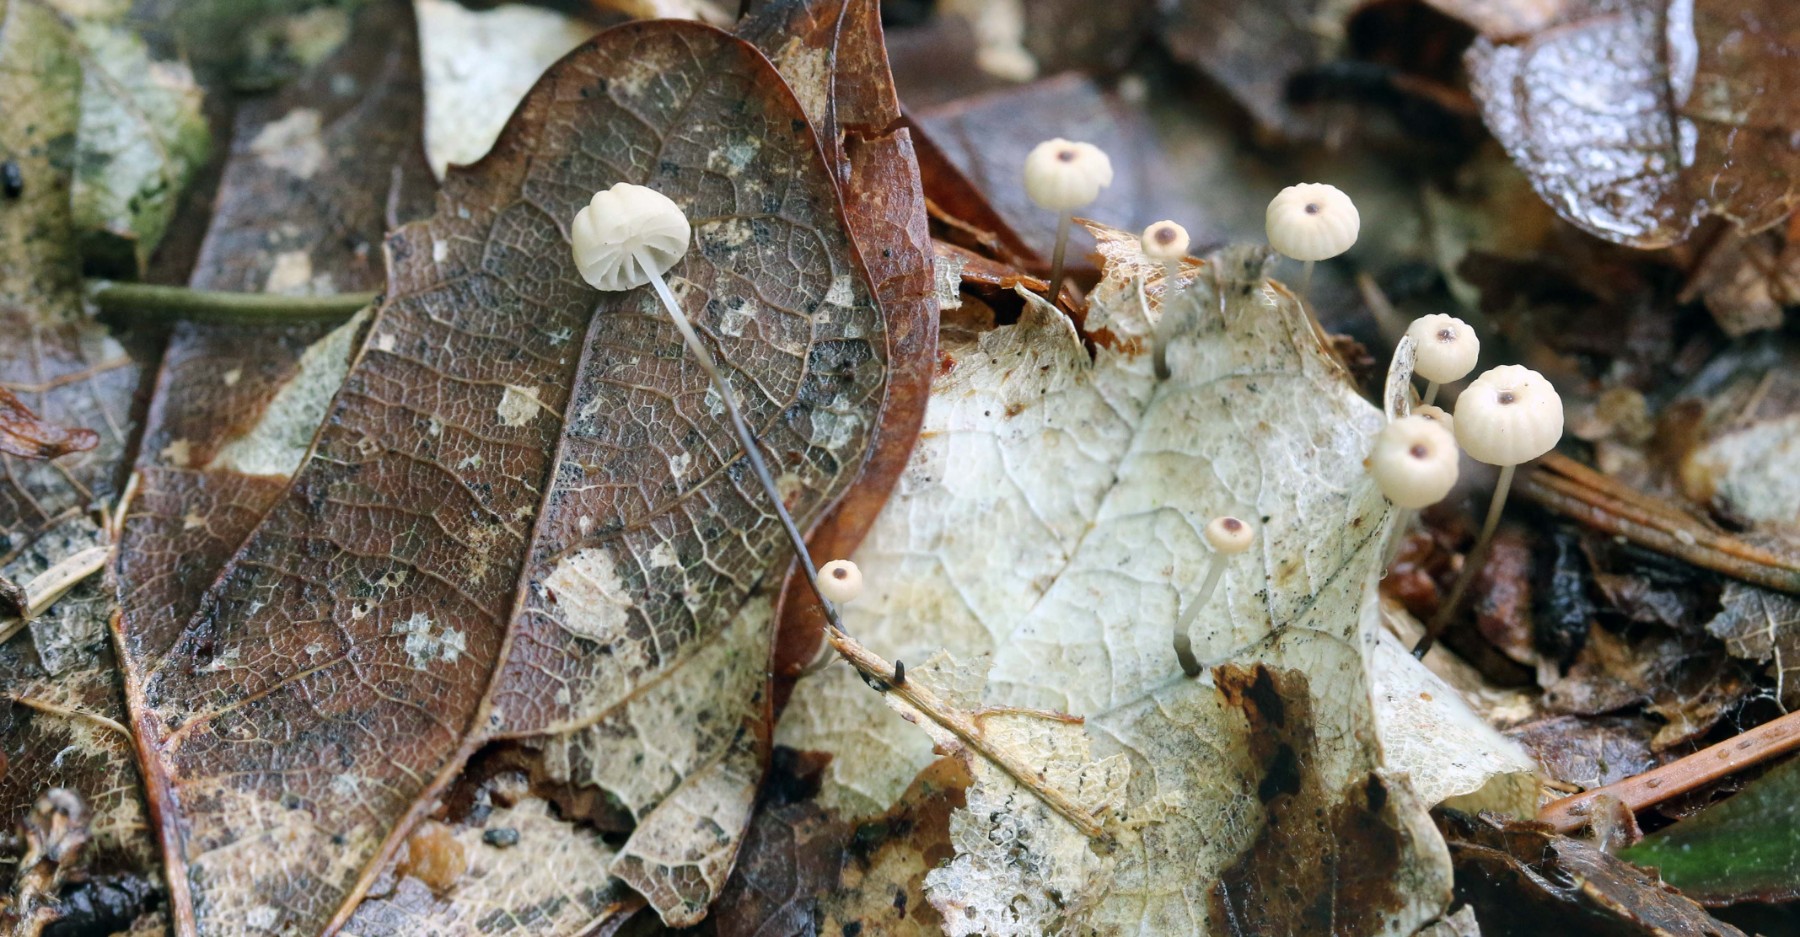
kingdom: Fungi
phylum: Basidiomycota
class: Agaricomycetes
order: Agaricales
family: Marasmiaceae
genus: Marasmius
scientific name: Marasmius bulliardii
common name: furet bruskhat
